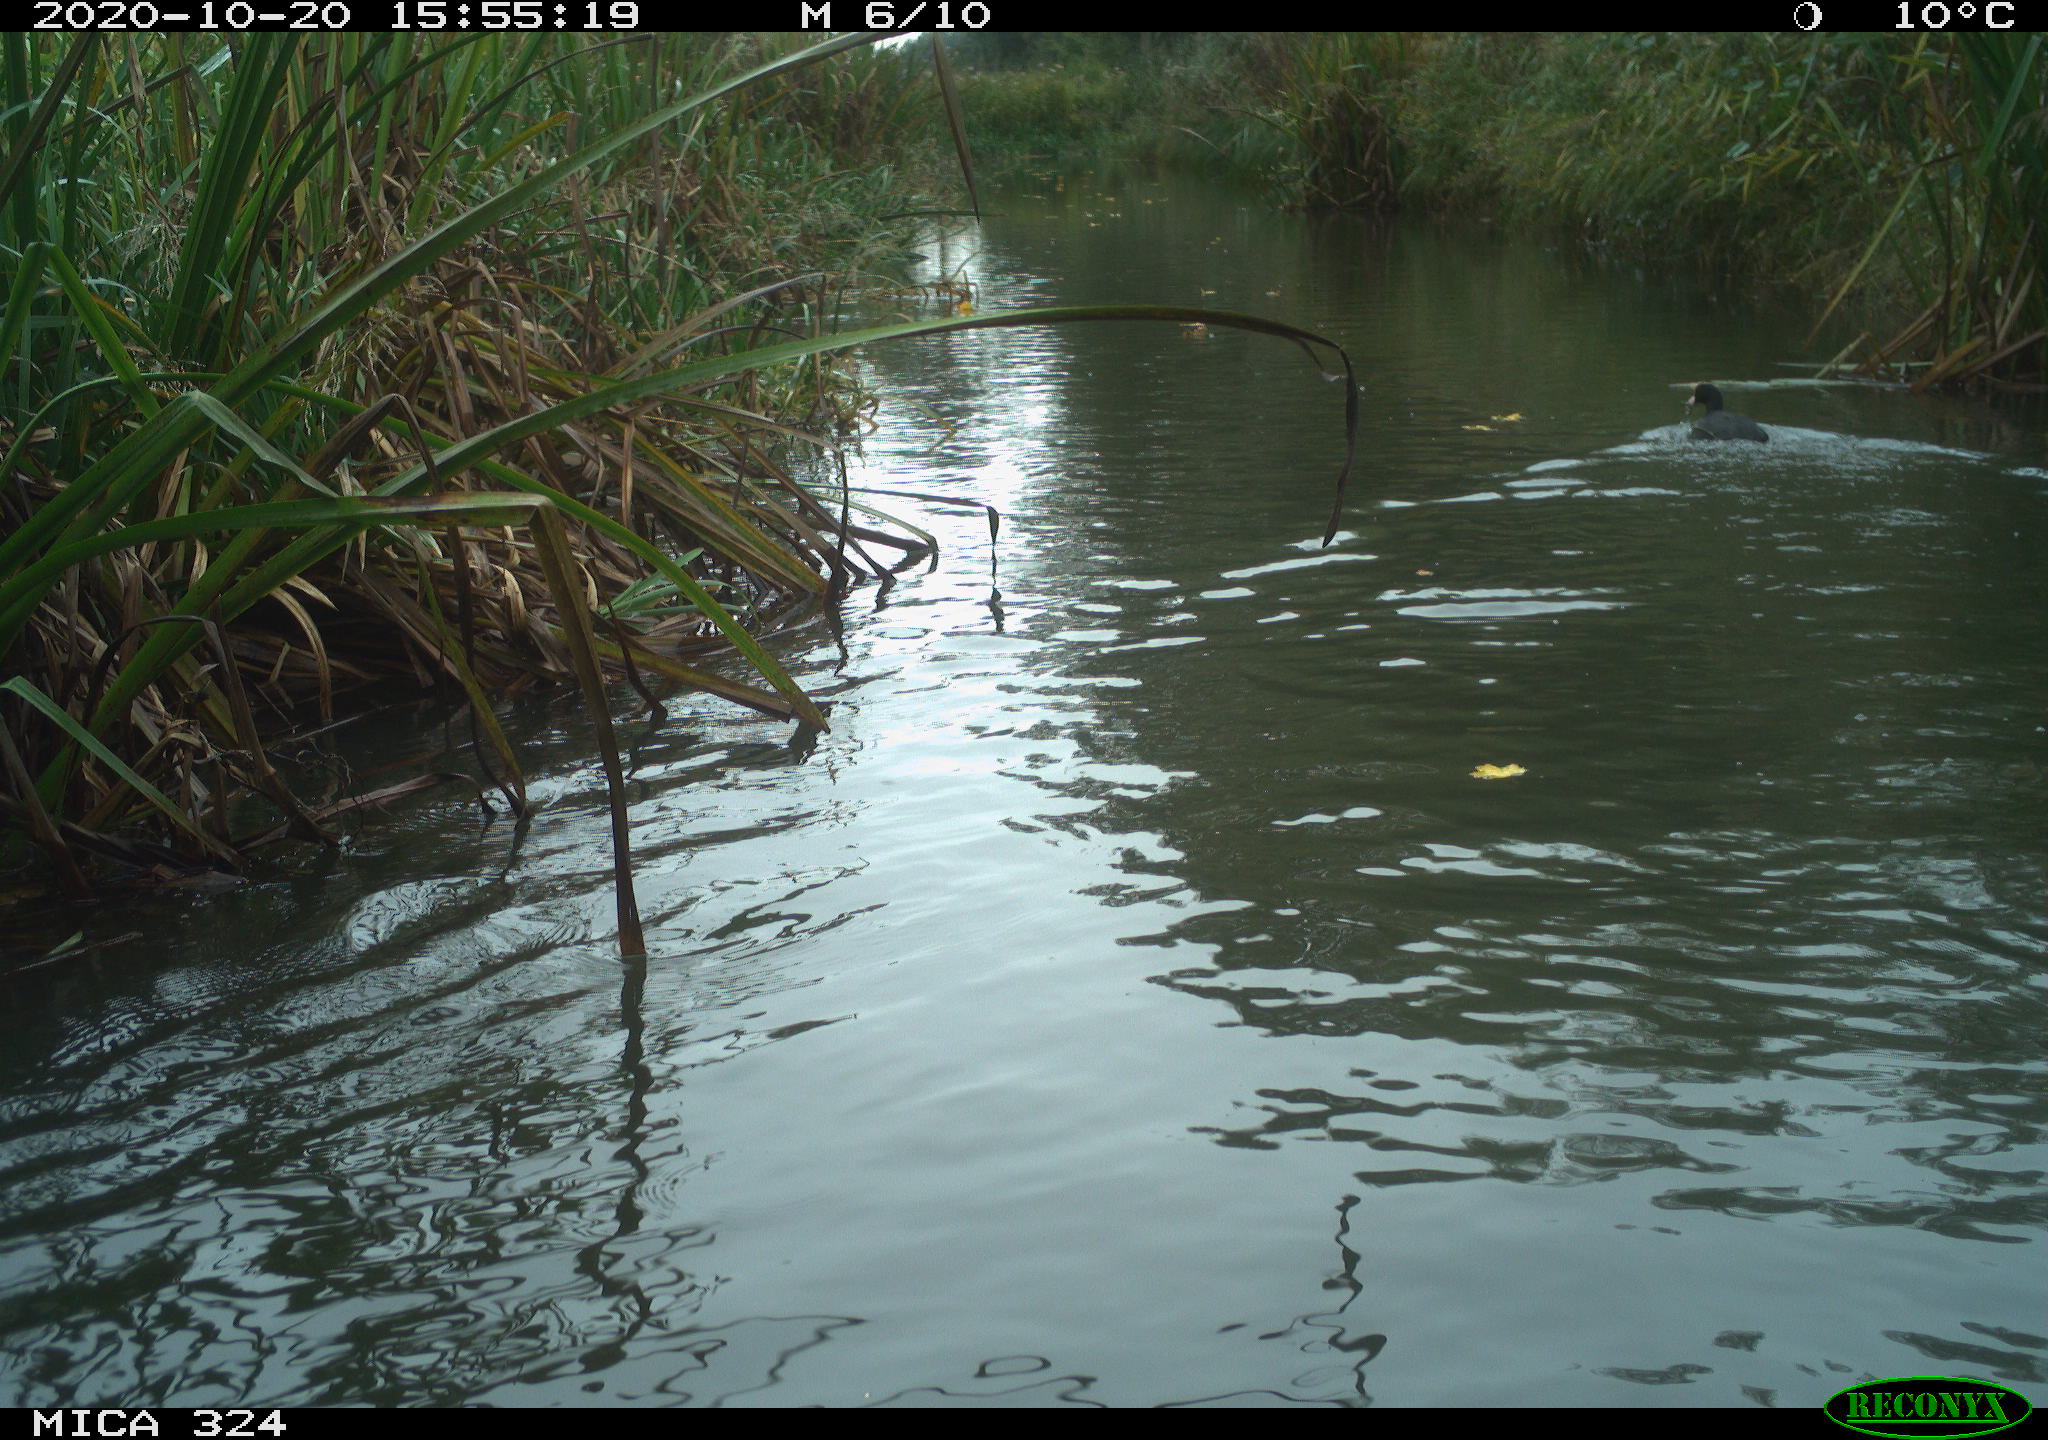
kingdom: Animalia
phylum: Chordata
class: Aves
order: Gruiformes
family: Rallidae
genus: Fulica
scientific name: Fulica atra
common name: Eurasian coot
